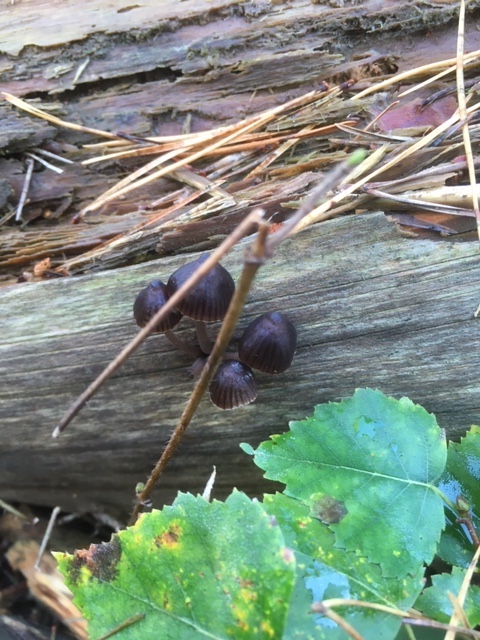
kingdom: Fungi
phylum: Basidiomycota
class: Agaricomycetes
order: Agaricales
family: Mycenaceae
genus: Mycena
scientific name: Mycena stipata
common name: stinkende huesvamp
